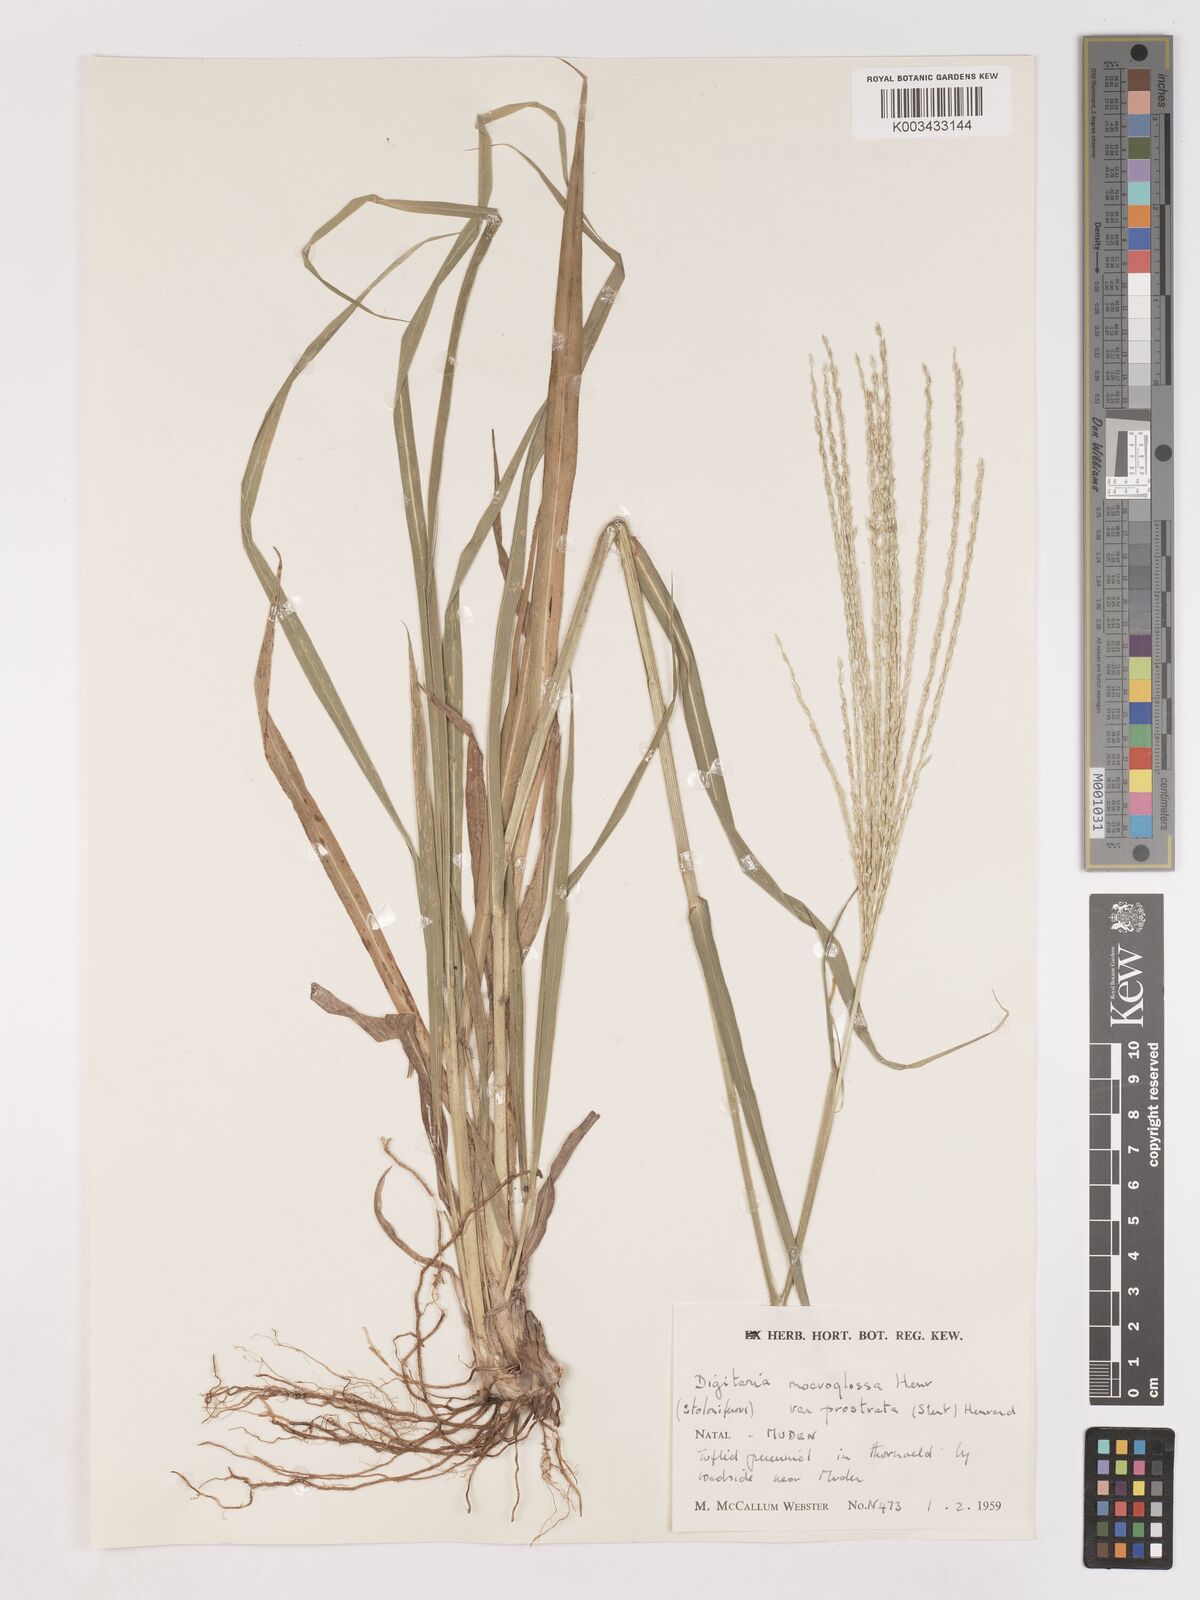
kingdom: Plantae
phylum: Tracheophyta
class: Liliopsida
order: Poales
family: Poaceae
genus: Digitaria
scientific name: Digitaria natalensis
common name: Coast finger grass
